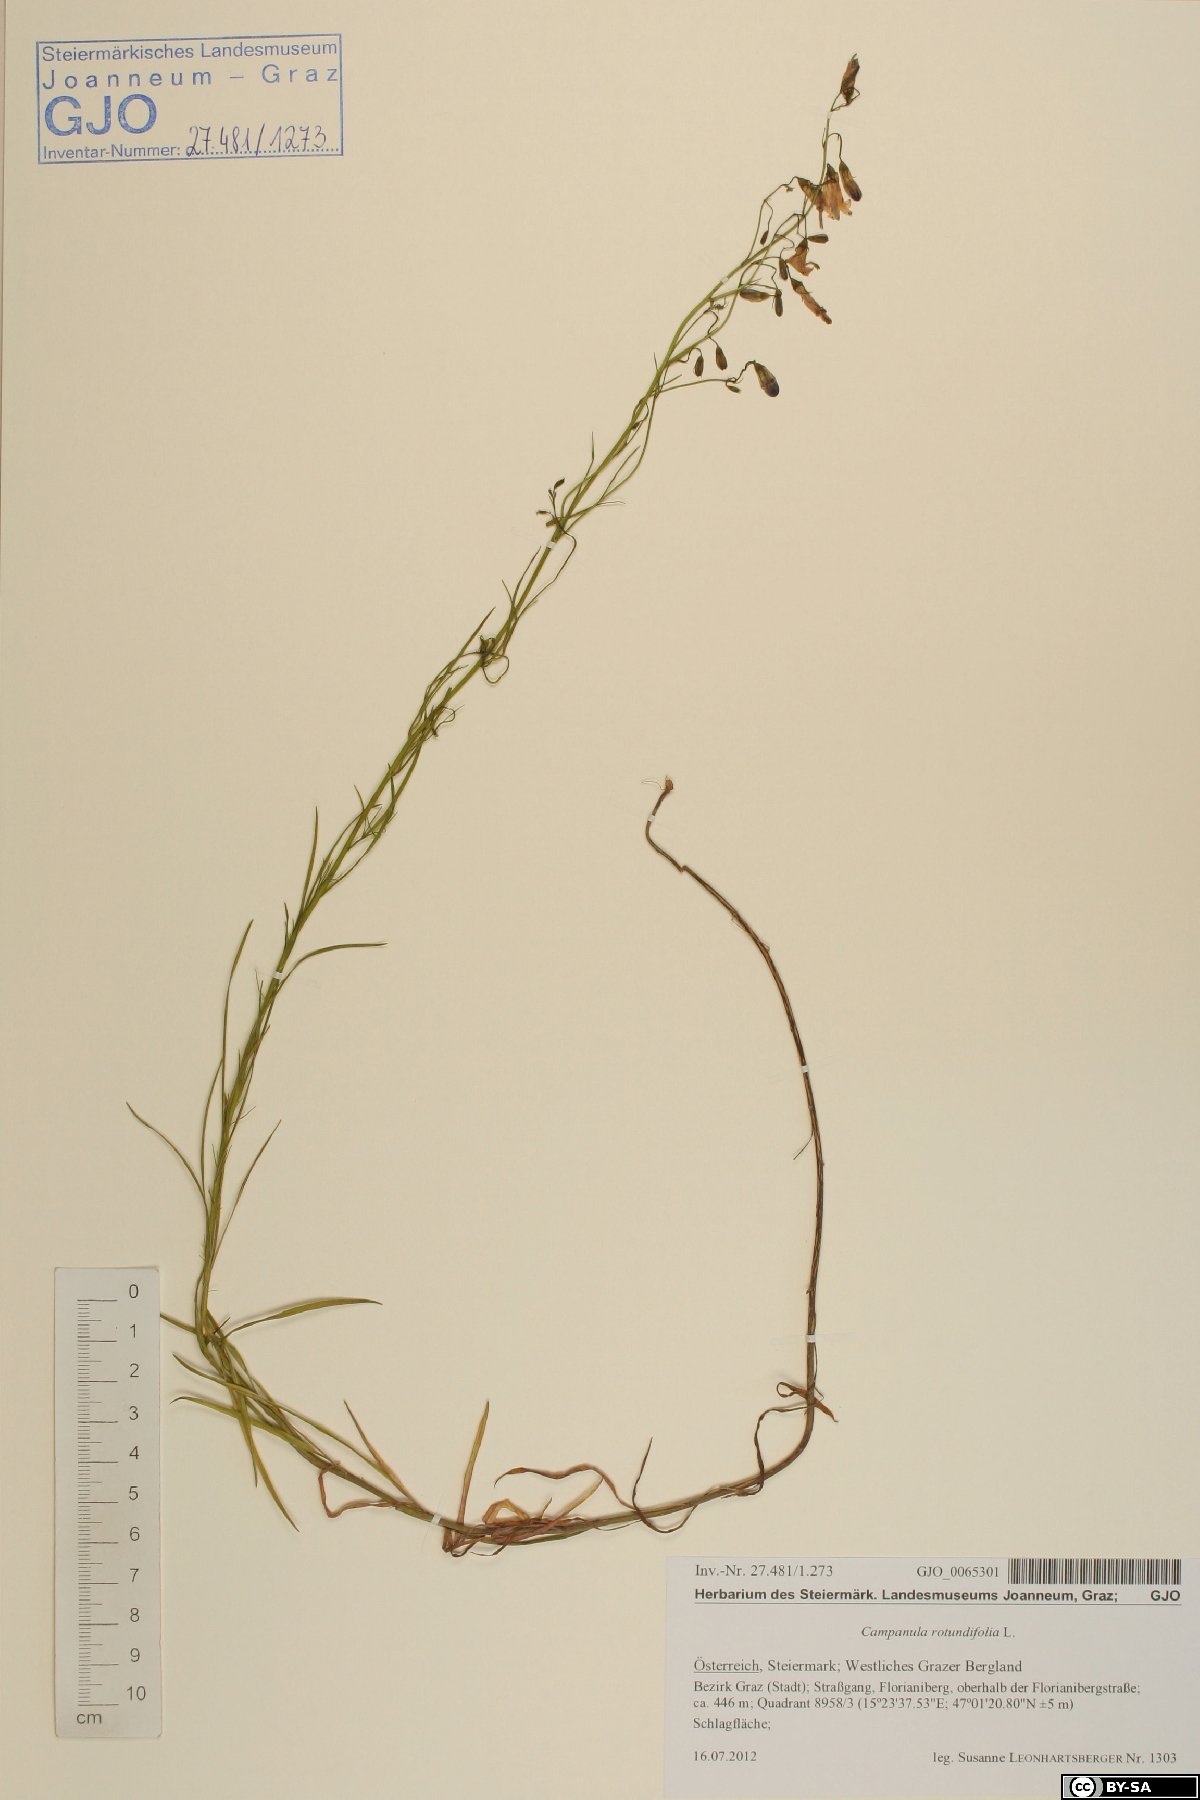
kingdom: Plantae
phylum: Tracheophyta
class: Magnoliopsida
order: Asterales
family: Campanulaceae
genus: Campanula
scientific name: Campanula rotundifolia
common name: Harebell
